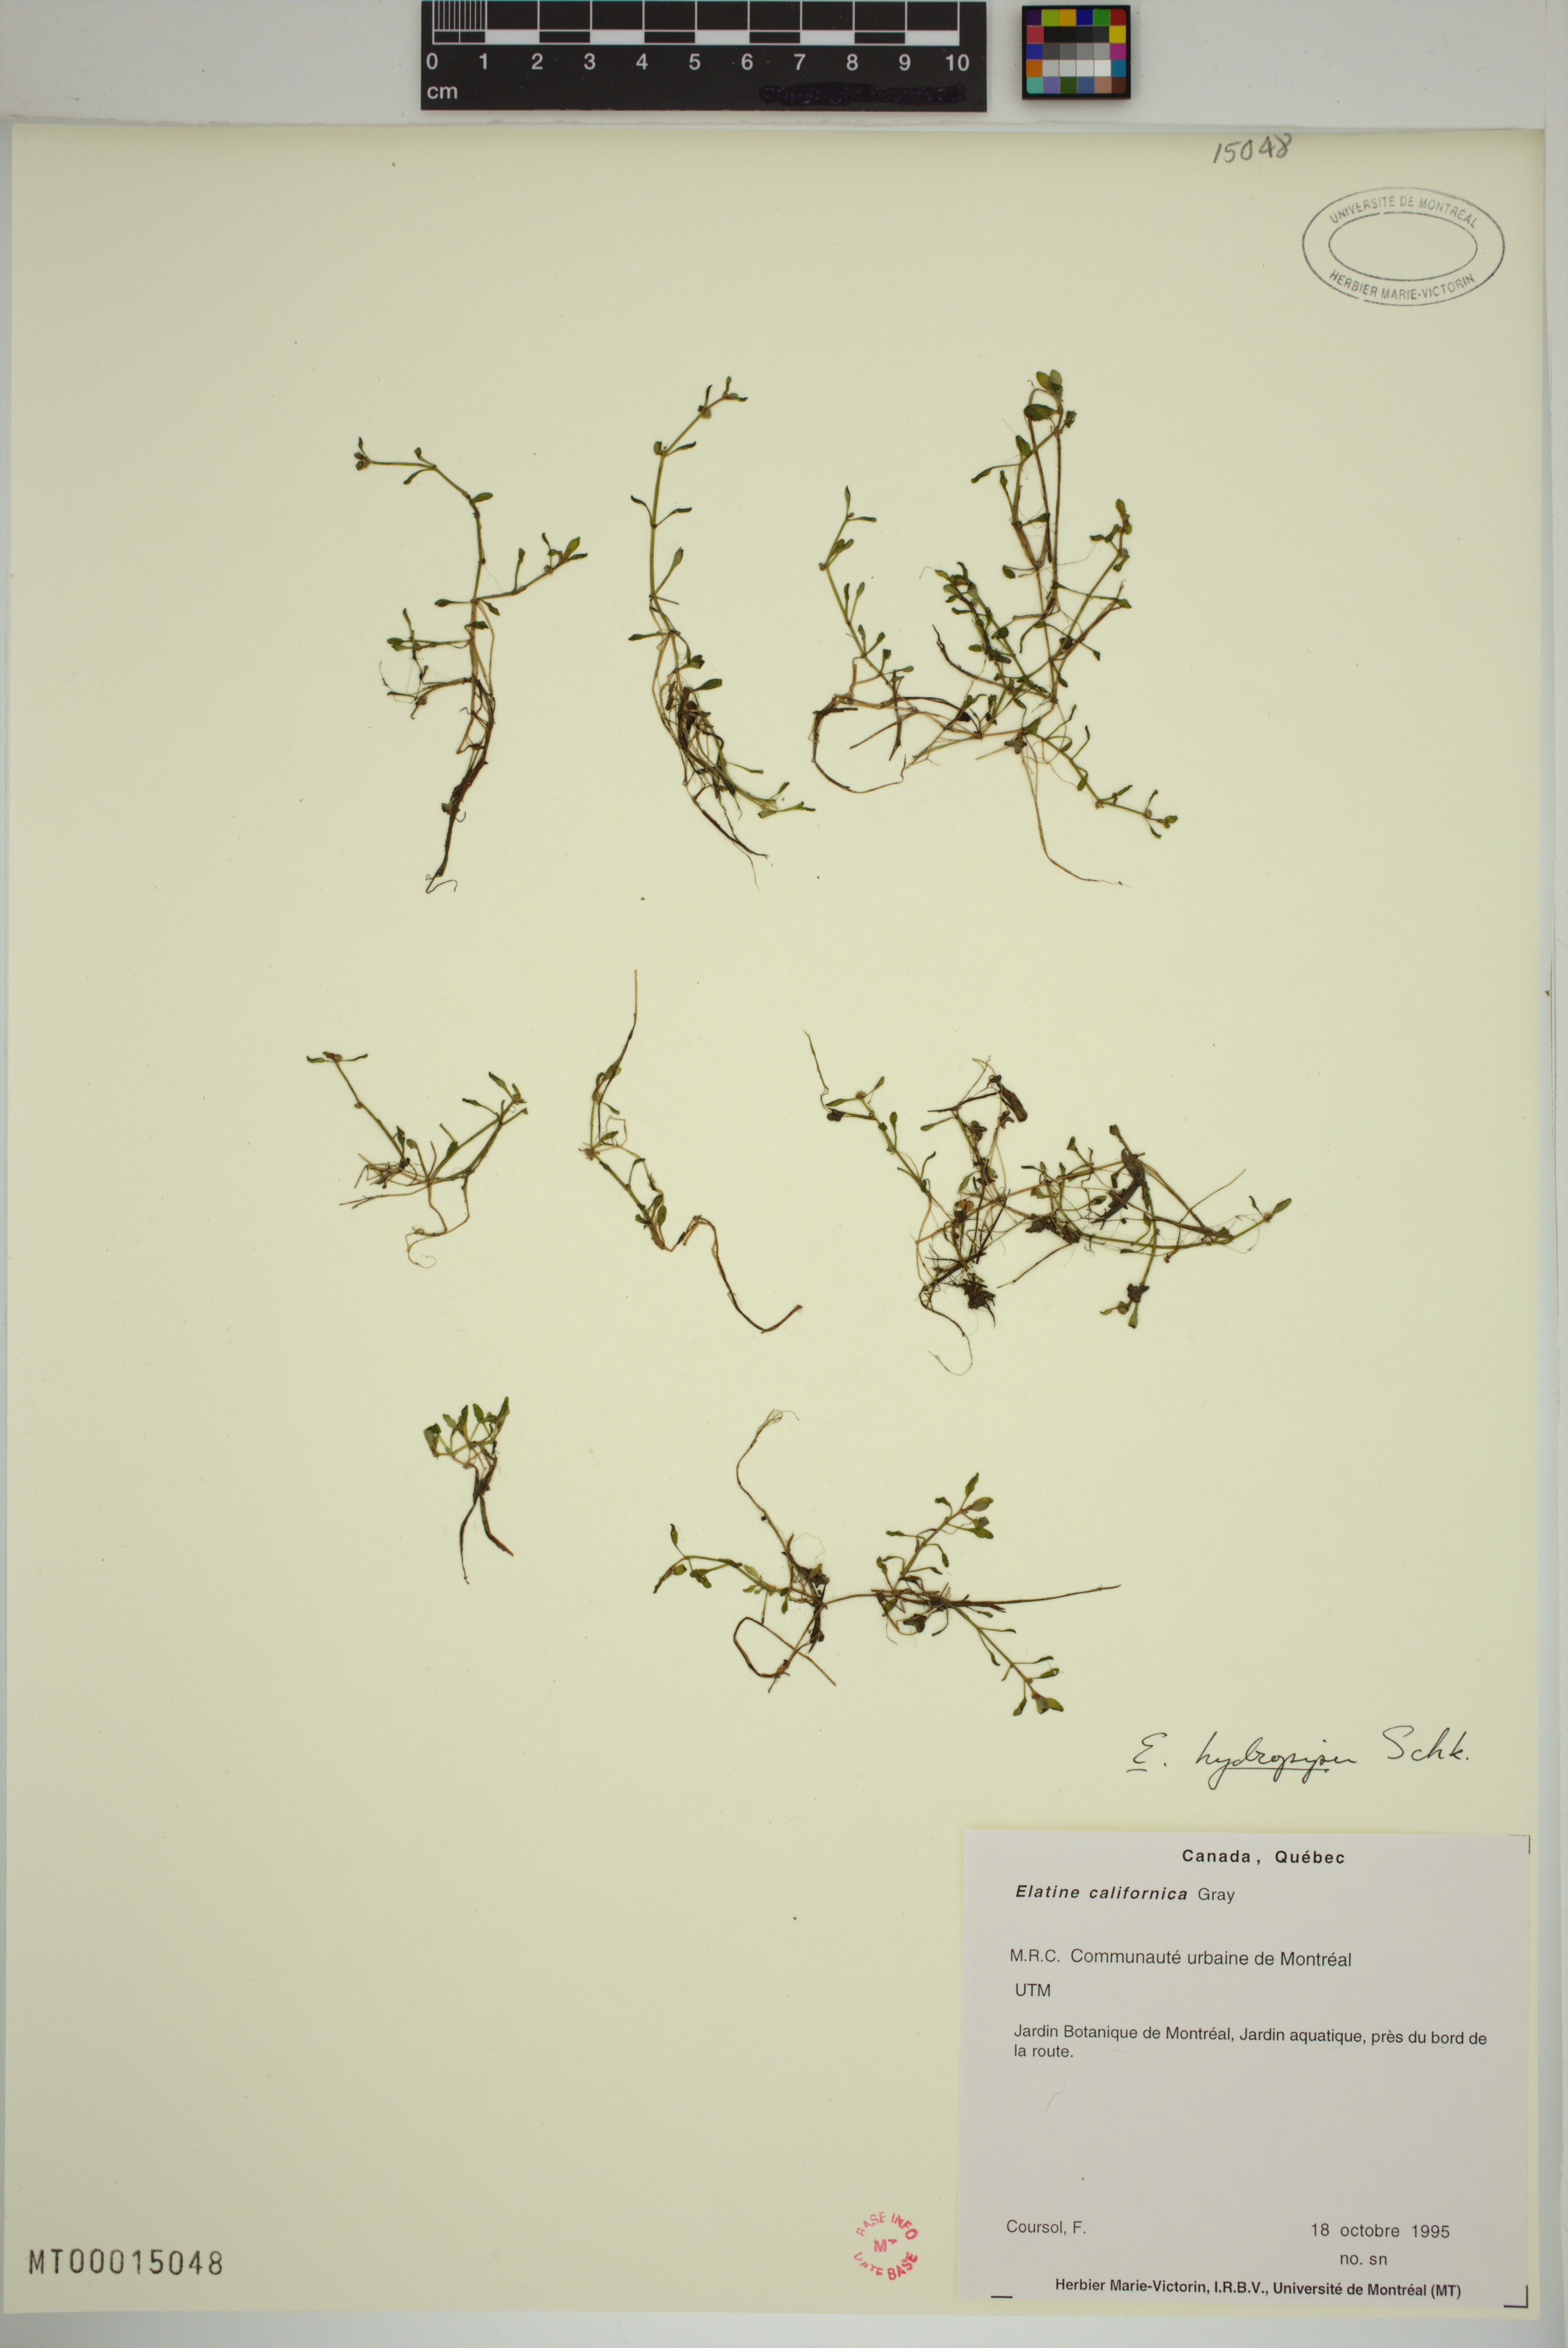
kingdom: Plantae
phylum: Tracheophyta
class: Magnoliopsida
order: Malpighiales
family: Elatinaceae
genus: Elatine
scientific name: Elatine macropoda
